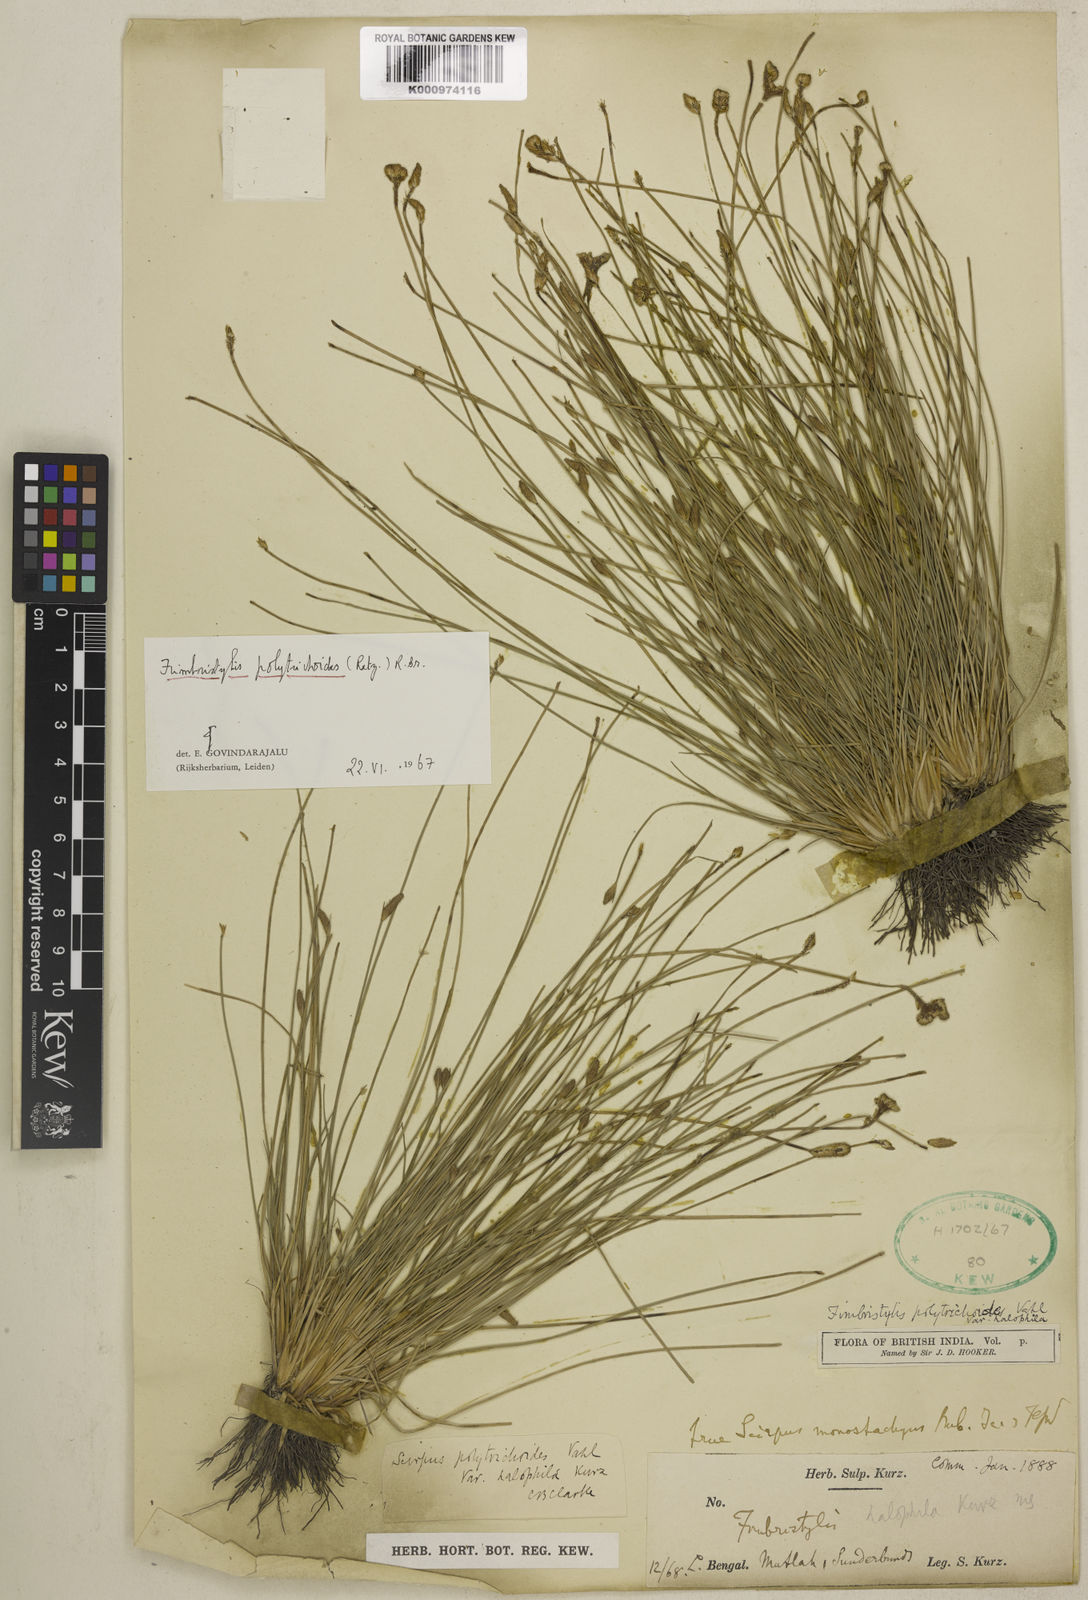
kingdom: Plantae
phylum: Tracheophyta
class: Liliopsida
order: Poales
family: Cyperaceae
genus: Fimbristylis
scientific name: Fimbristylis
